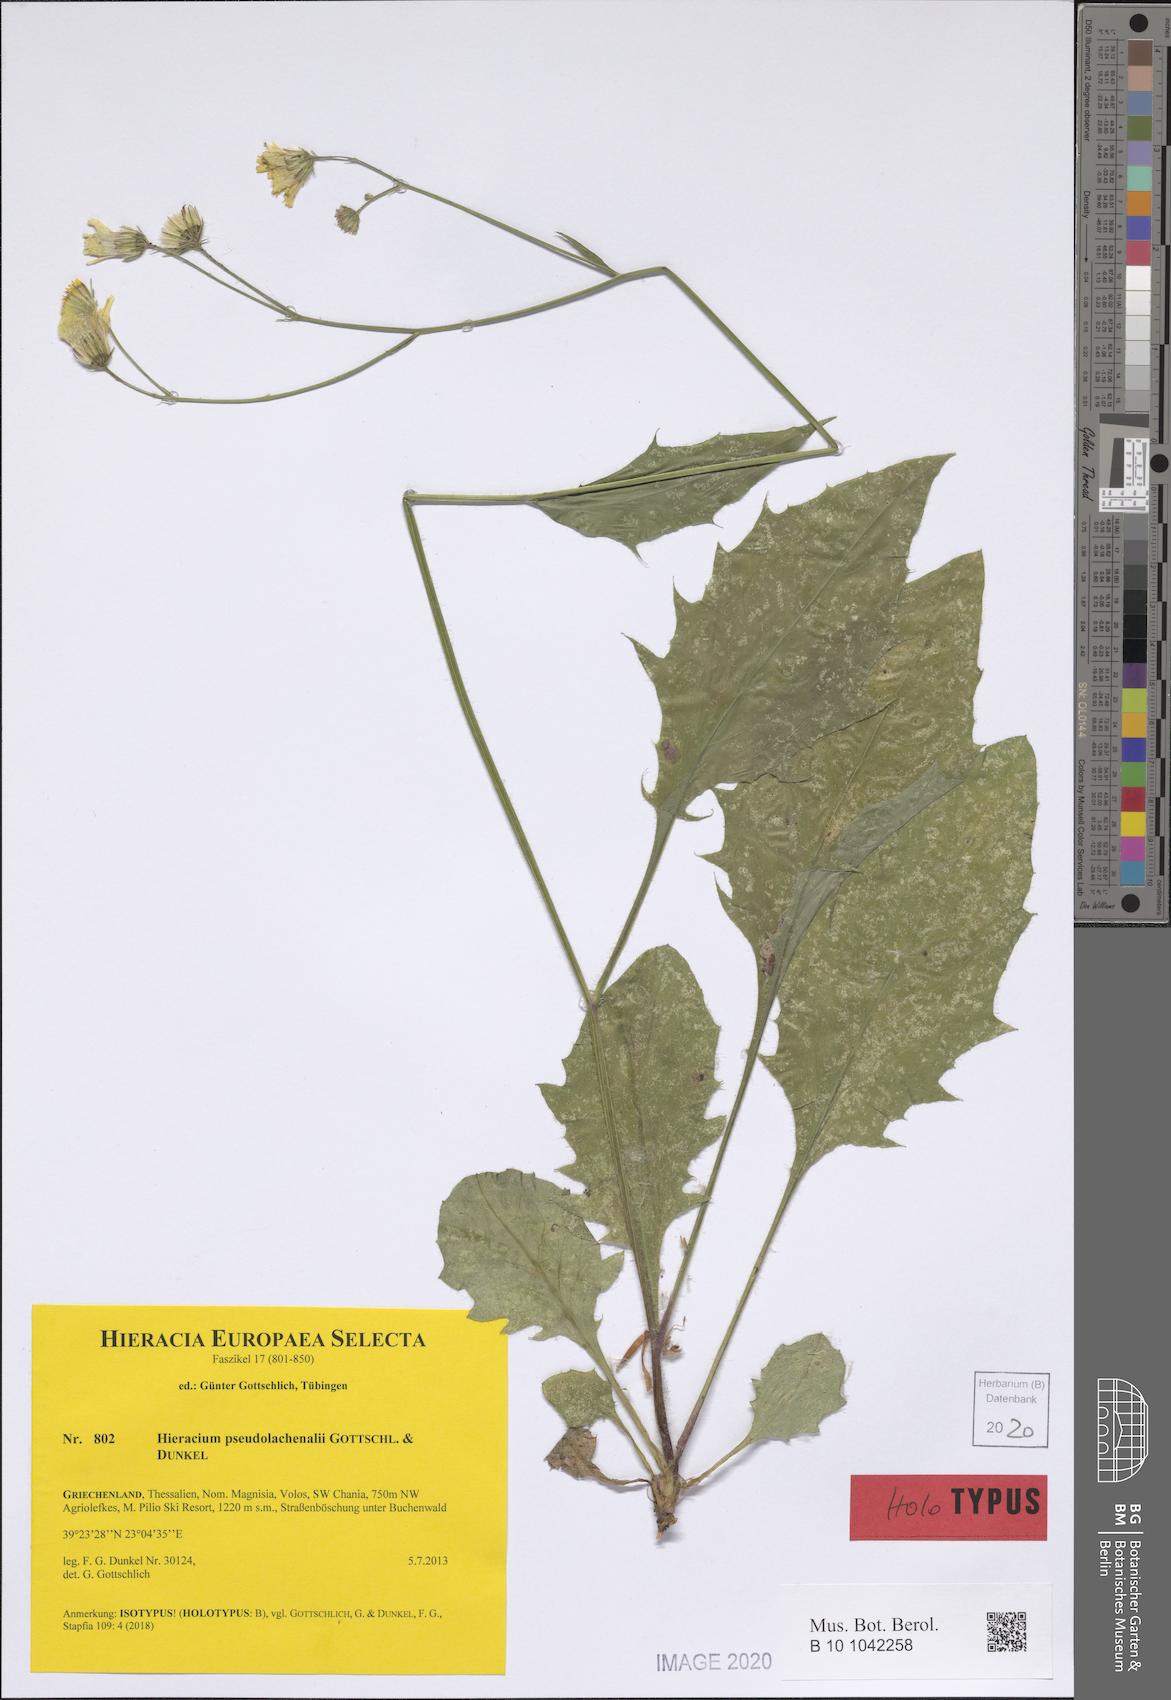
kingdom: Plantae
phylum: Tracheophyta
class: Magnoliopsida
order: Asterales
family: Asteraceae
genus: Hieracium
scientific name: Hieracium pseudolachenalii
